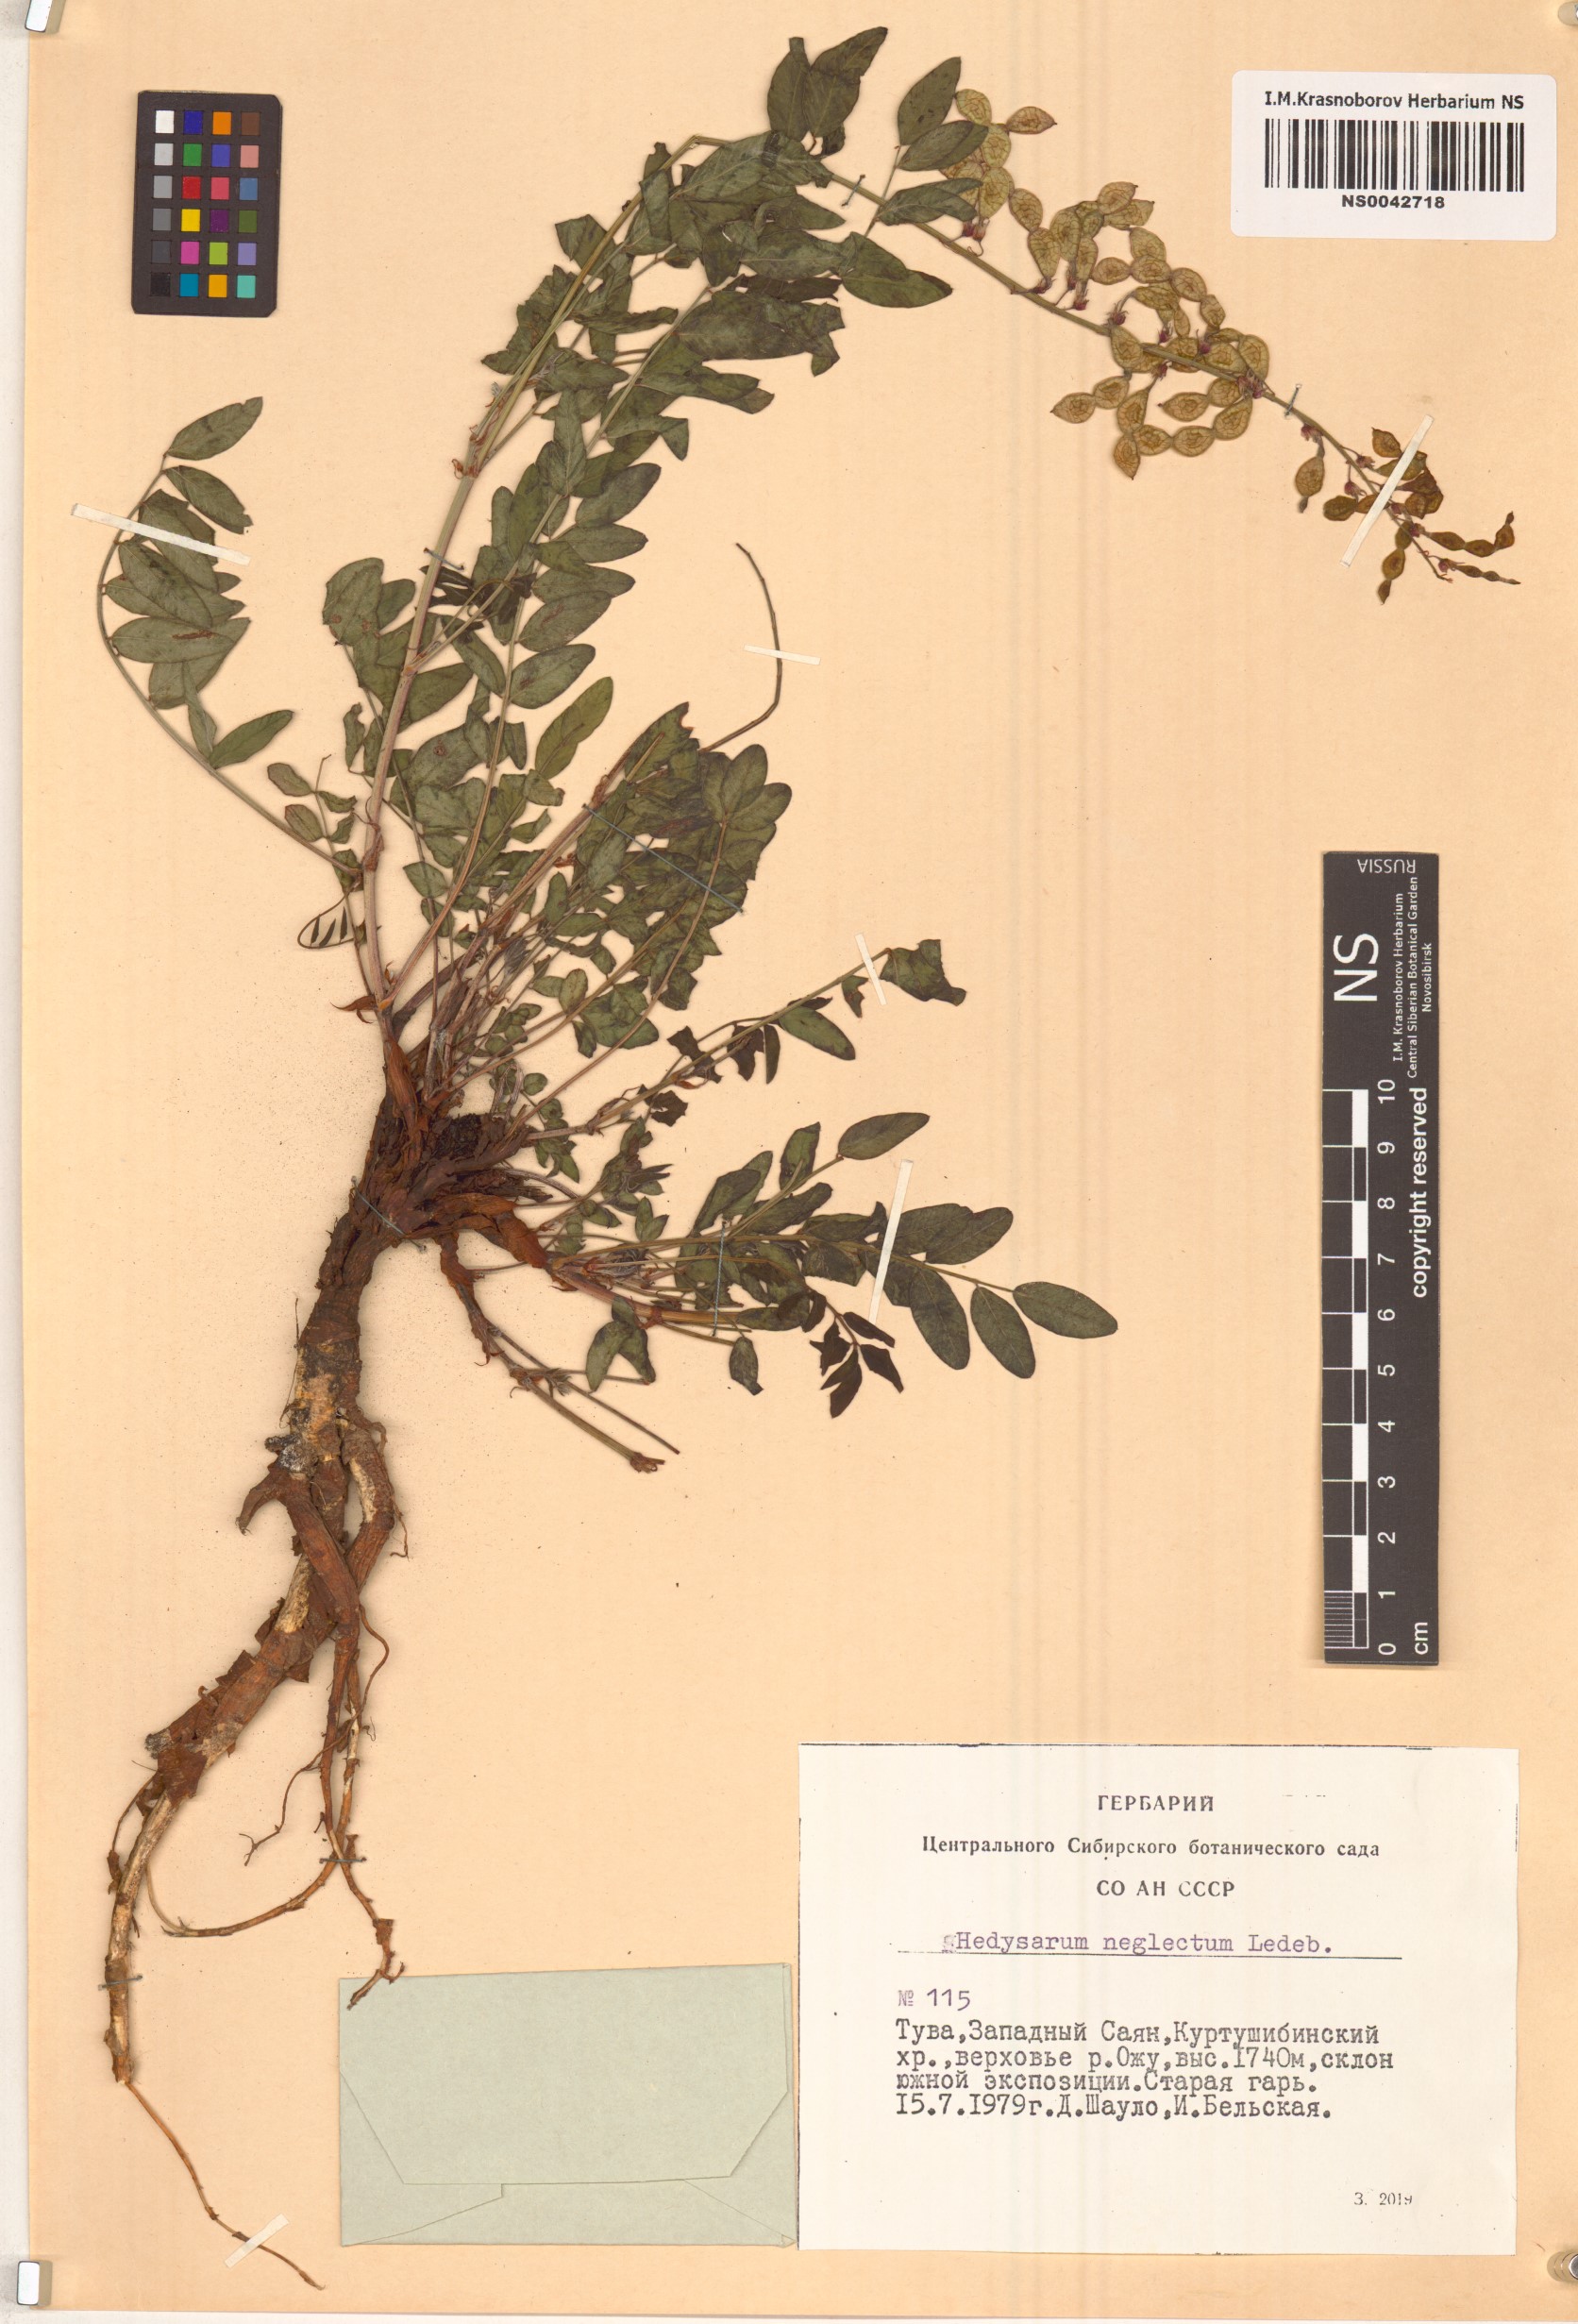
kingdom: Plantae
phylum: Tracheophyta
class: Magnoliopsida
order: Fabales
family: Fabaceae
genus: Hedysarum
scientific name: Hedysarum neglectum
